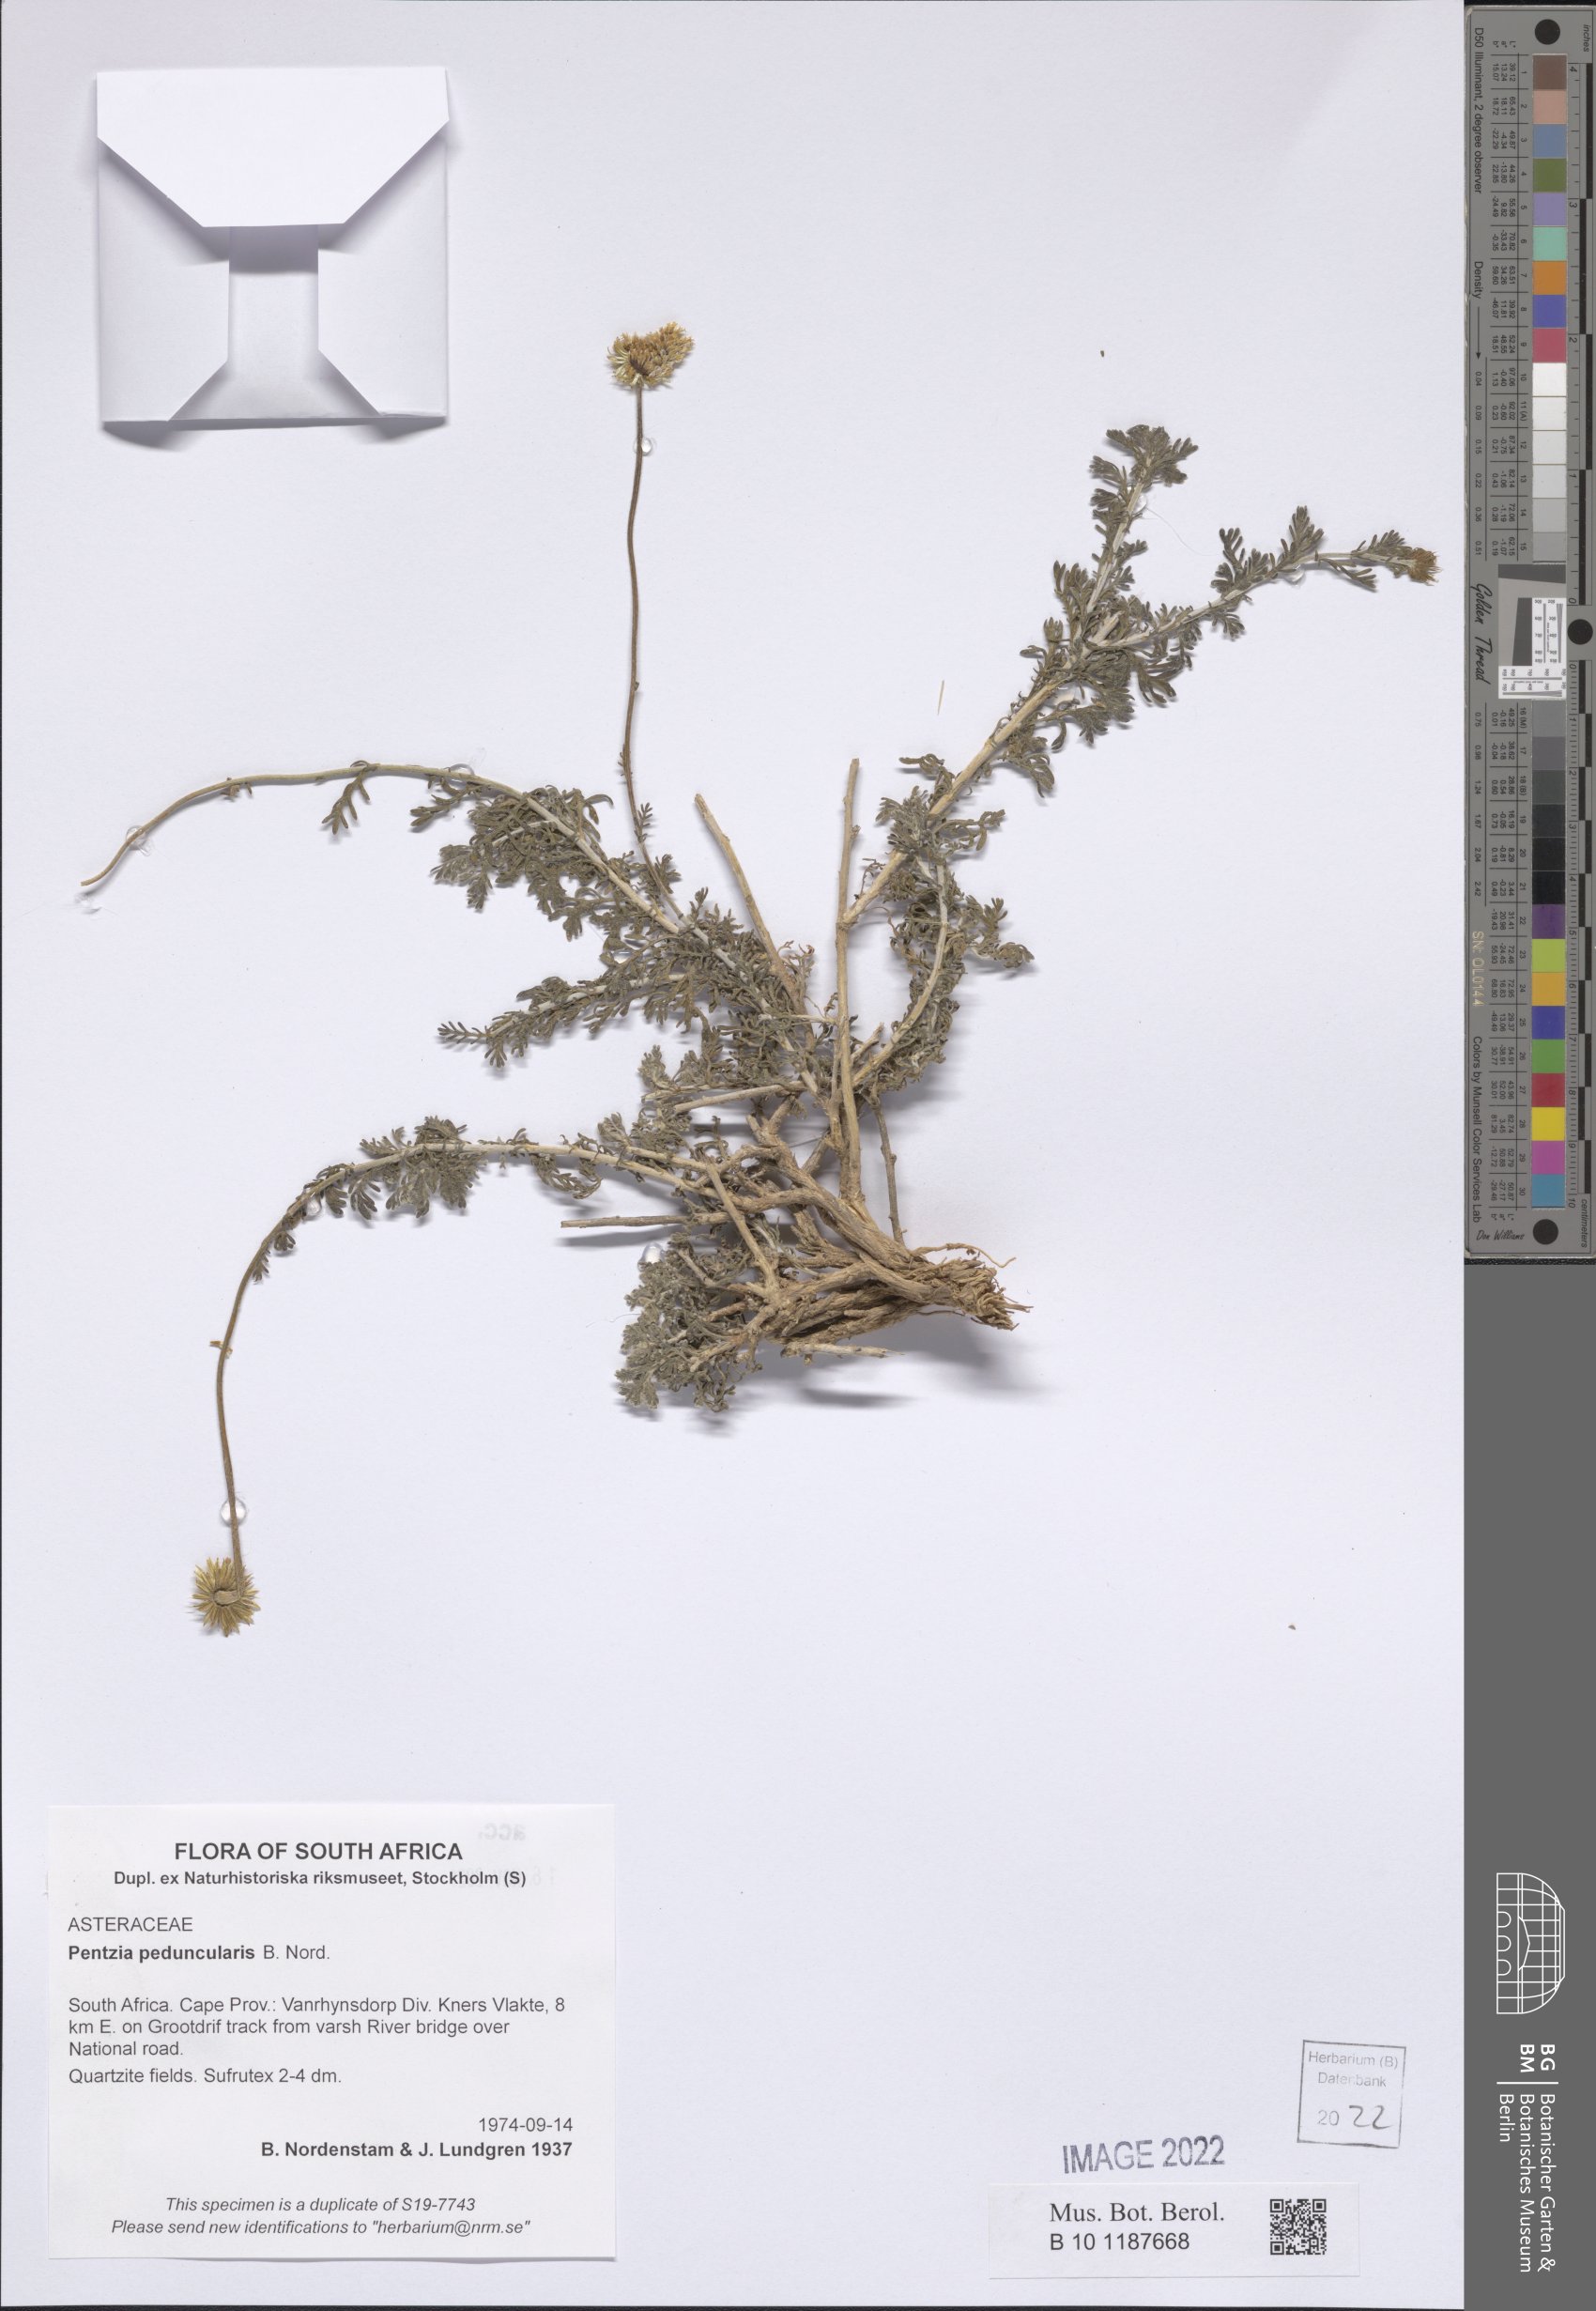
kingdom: Plantae
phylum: Tracheophyta
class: Magnoliopsida
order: Asterales
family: Asteraceae
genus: Pentzia
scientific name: Pentzia peduncularis
